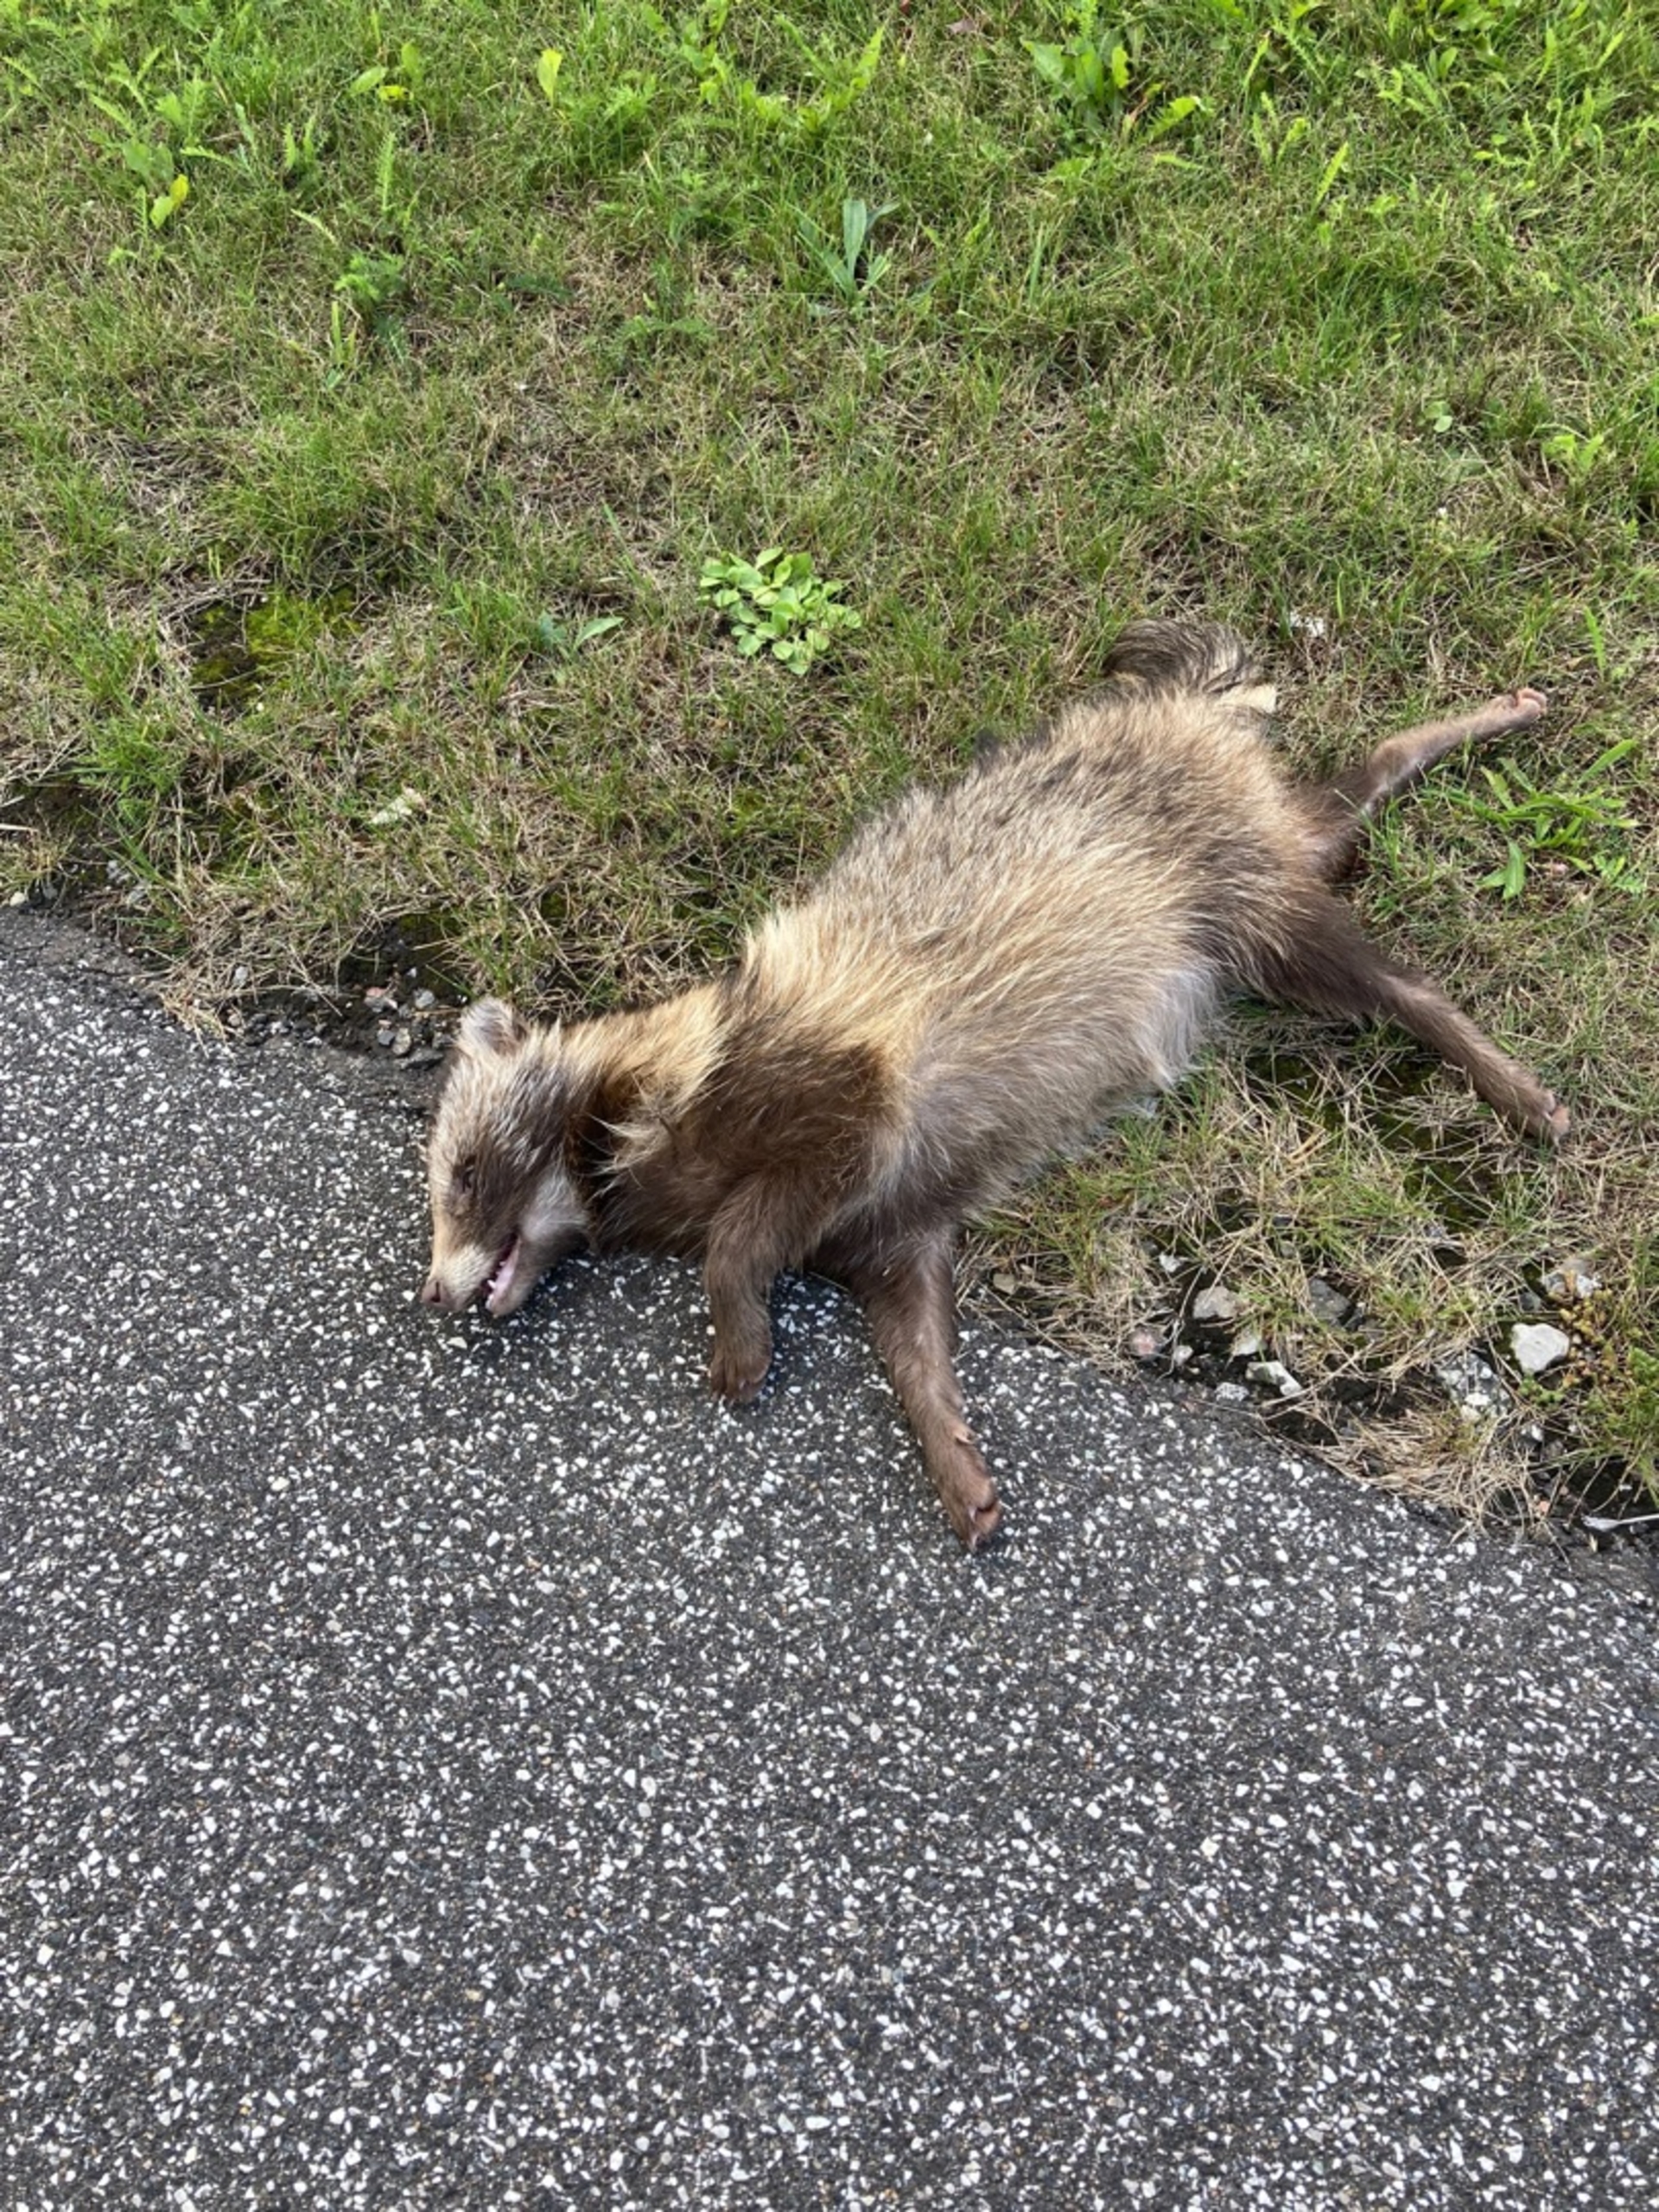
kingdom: Animalia
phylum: Chordata
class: Mammalia
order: Carnivora
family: Canidae
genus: Nyctereutes
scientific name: Nyctereutes procyonoides
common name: Mårhund
